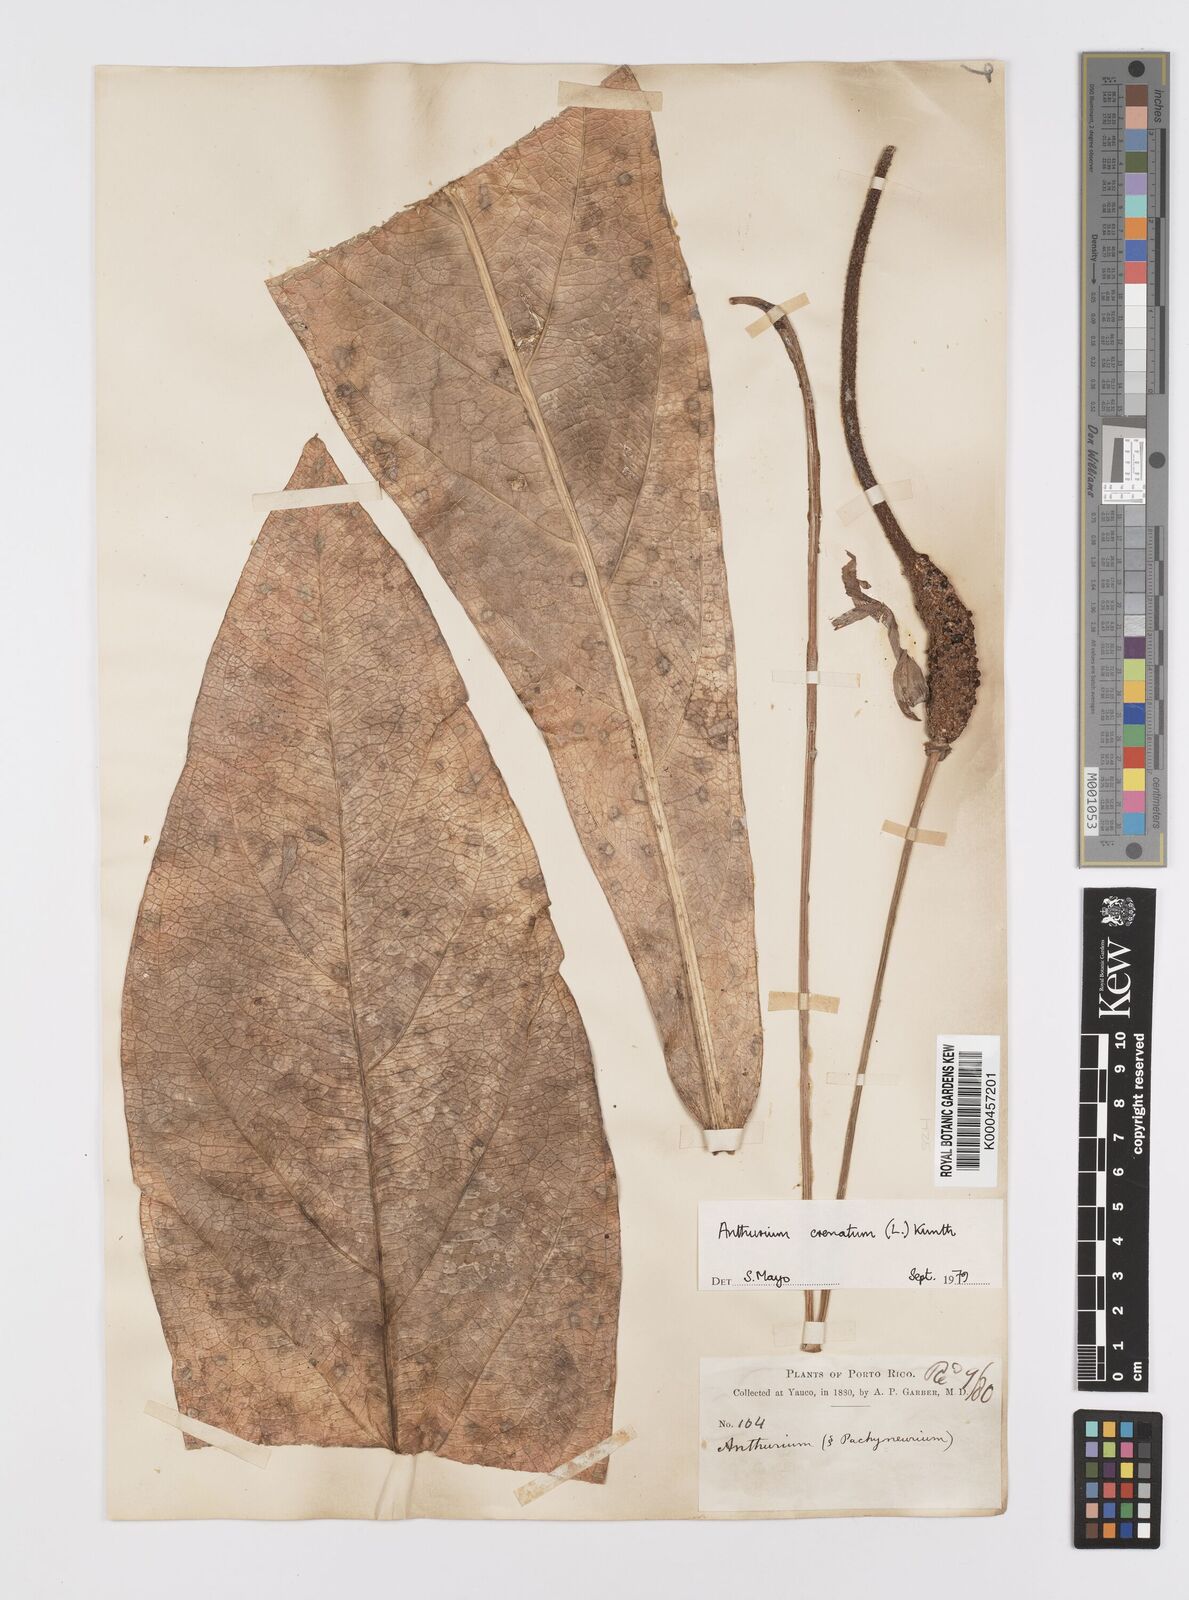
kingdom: Plantae
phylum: Tracheophyta
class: Liliopsida
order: Alismatales
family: Araceae
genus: Anthurium
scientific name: Anthurium crenatum
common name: Scalloped laceleaf
